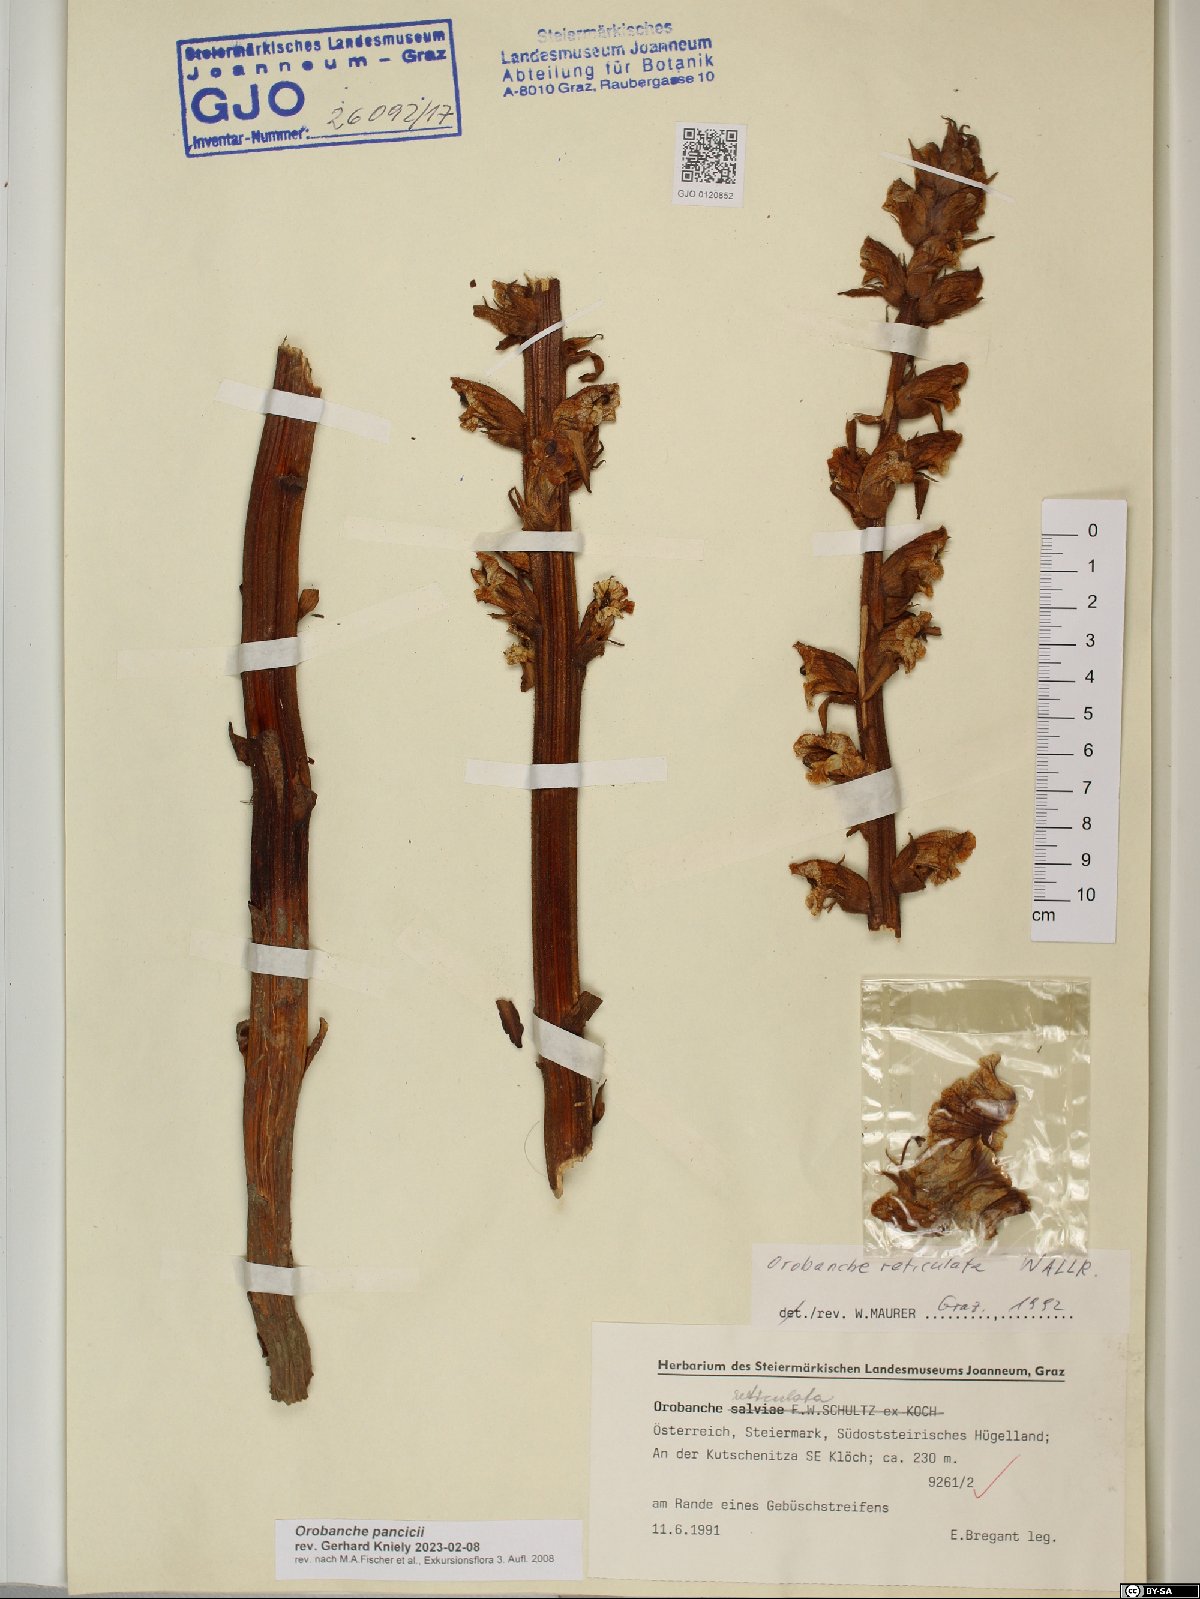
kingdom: Plantae
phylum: Tracheophyta
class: Magnoliopsida
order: Lamiales
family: Orobanchaceae
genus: Orobanche
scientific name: Orobanche pancicii
